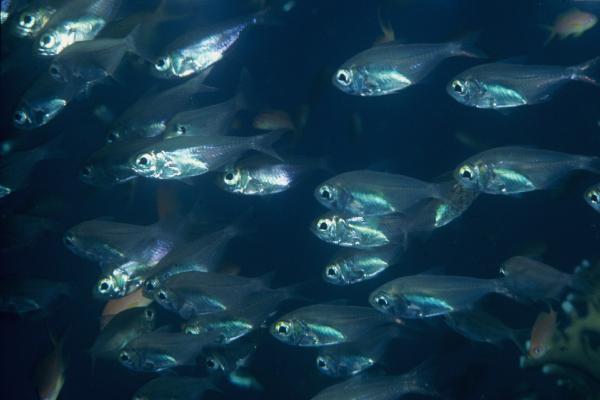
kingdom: Animalia
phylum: Chordata
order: Perciformes
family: Pempheridae
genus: Parapriacanthus
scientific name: Parapriacanthus
